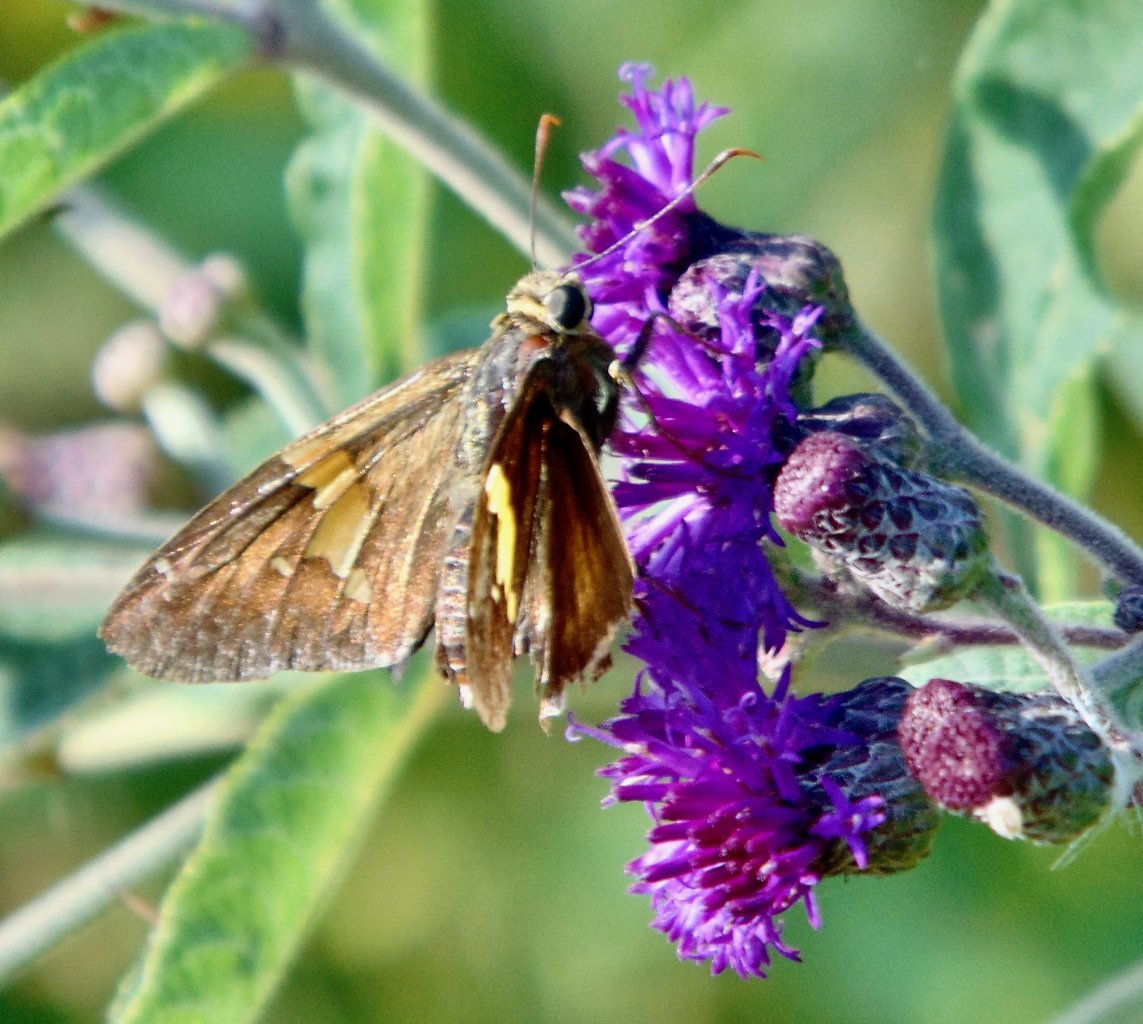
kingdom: Animalia
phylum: Arthropoda
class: Insecta
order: Lepidoptera
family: Hesperiidae
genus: Epargyreus
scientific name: Epargyreus clarus
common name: Silver-spotted Skipper
